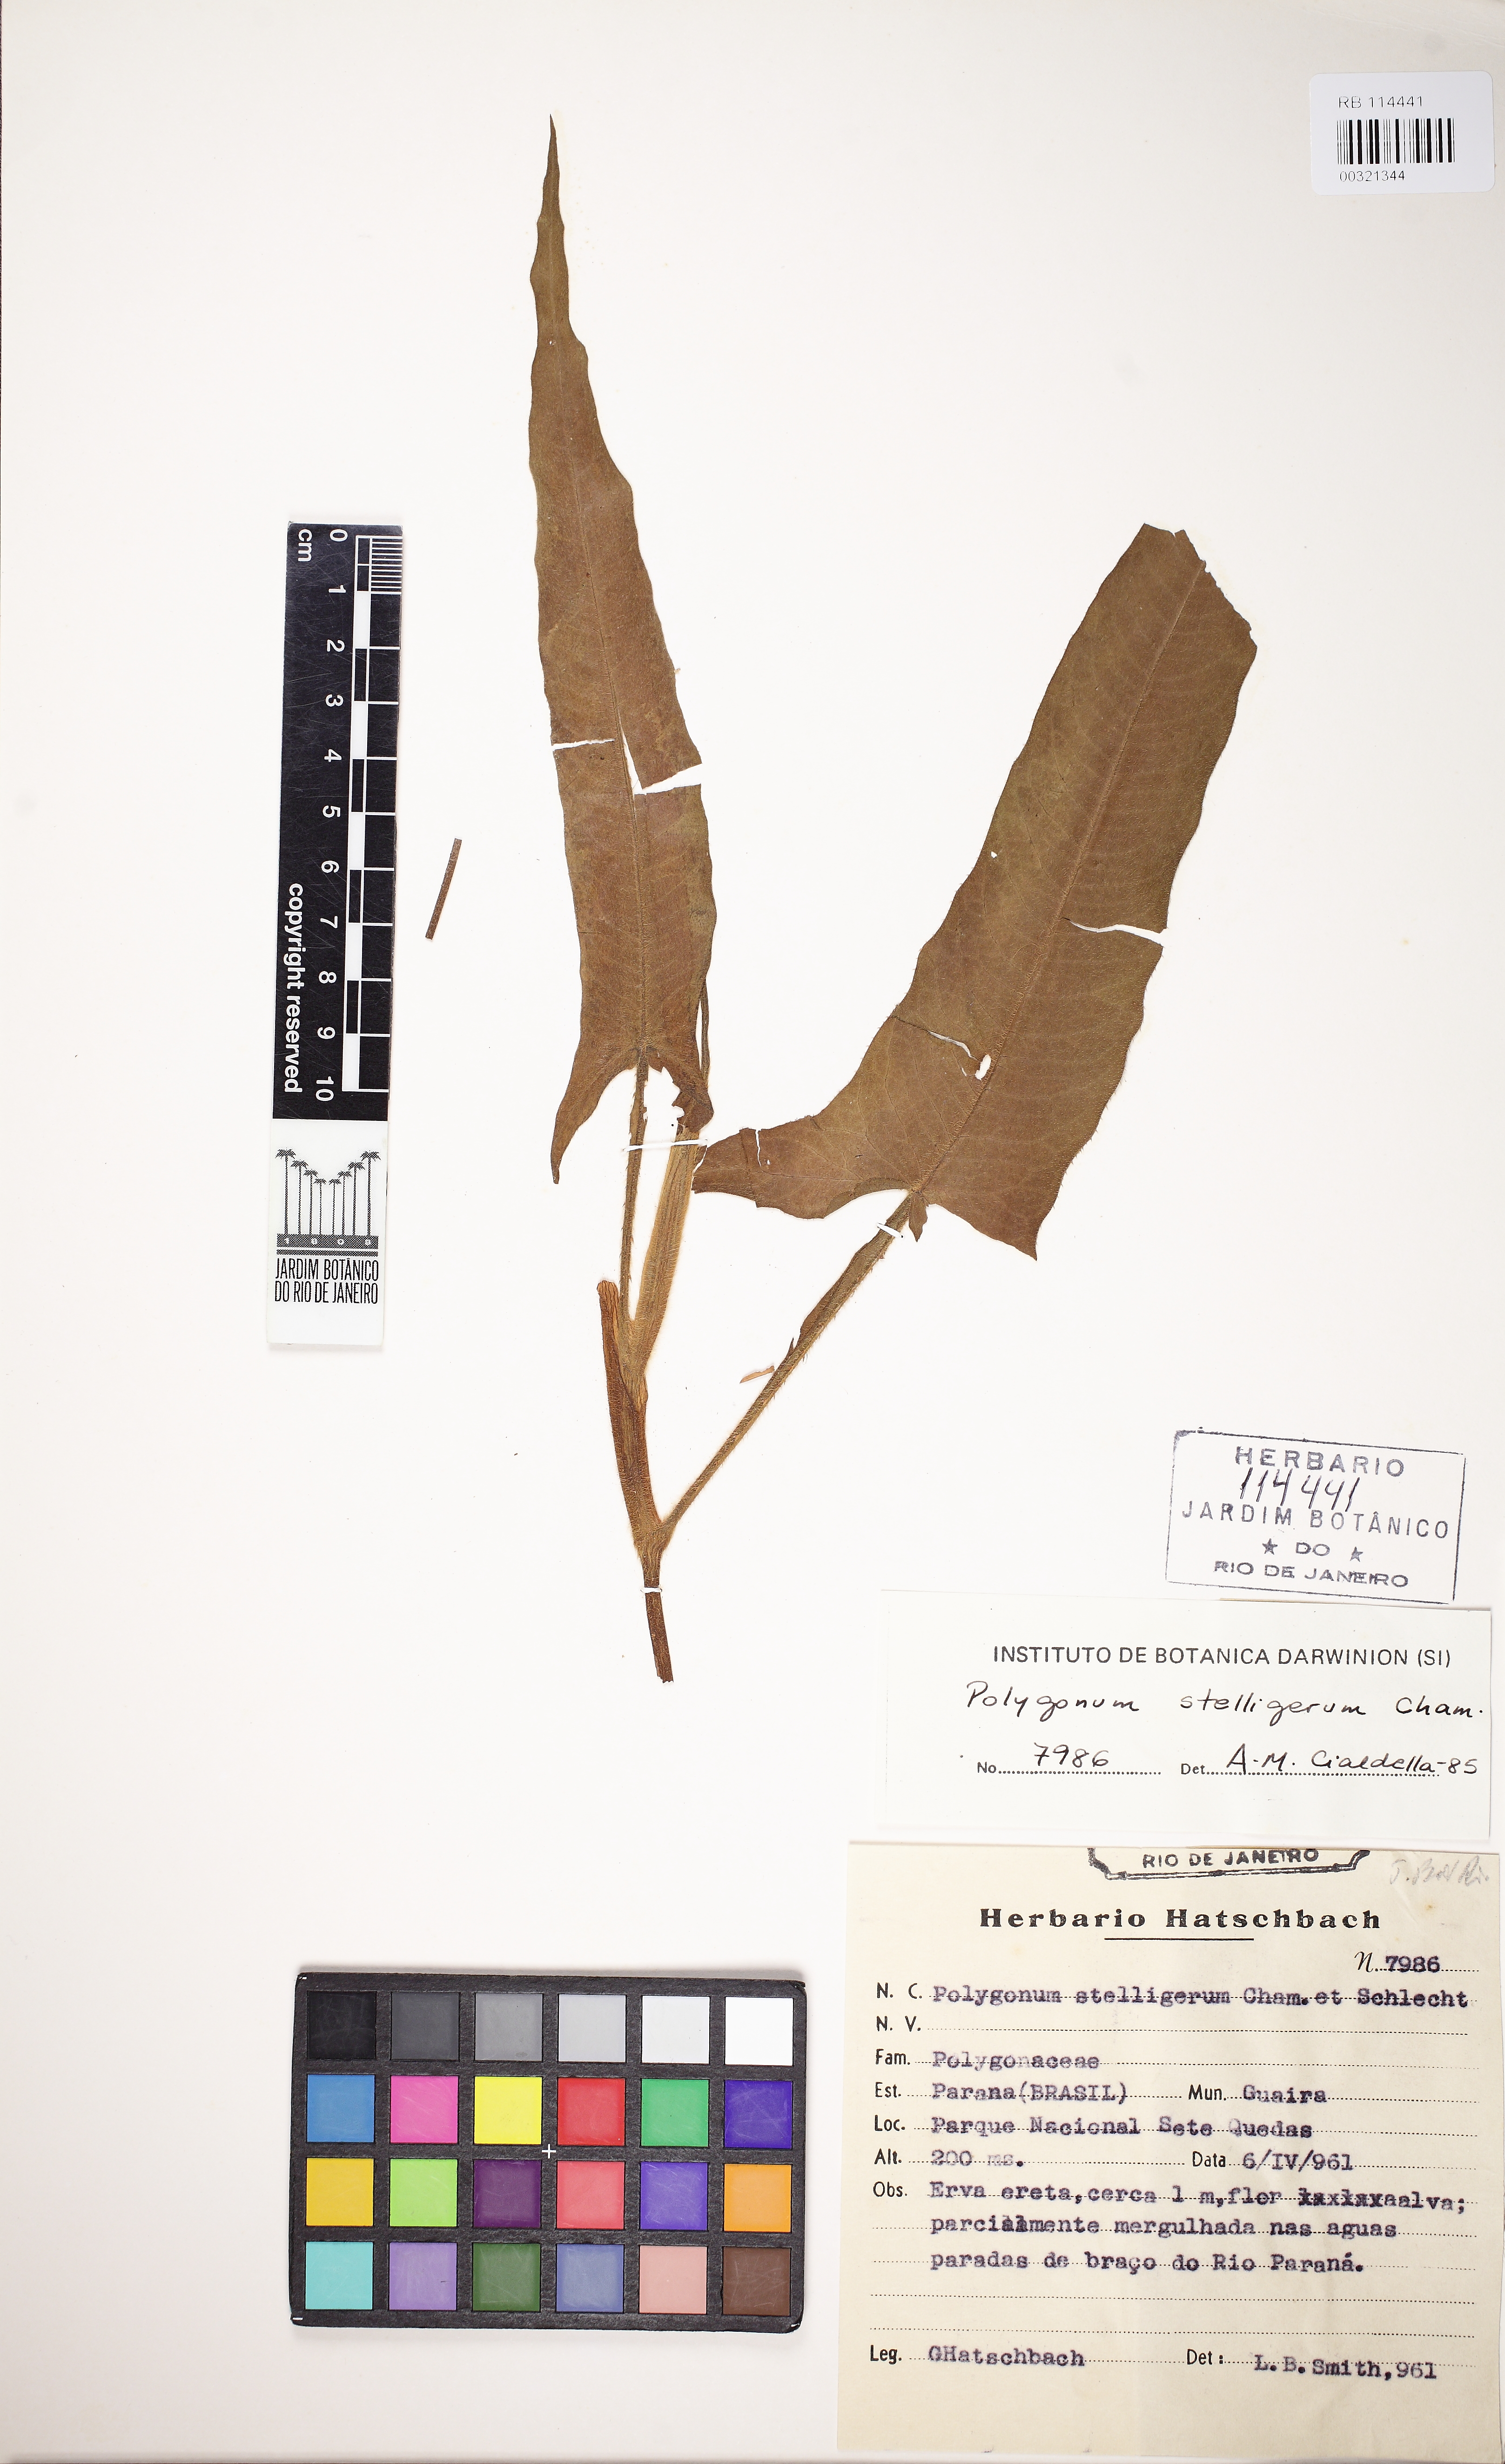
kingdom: Plantae
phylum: Tracheophyta
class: Magnoliopsida
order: Caryophyllales
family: Polygonaceae
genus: Persicaria
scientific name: Persicaria stelligera
